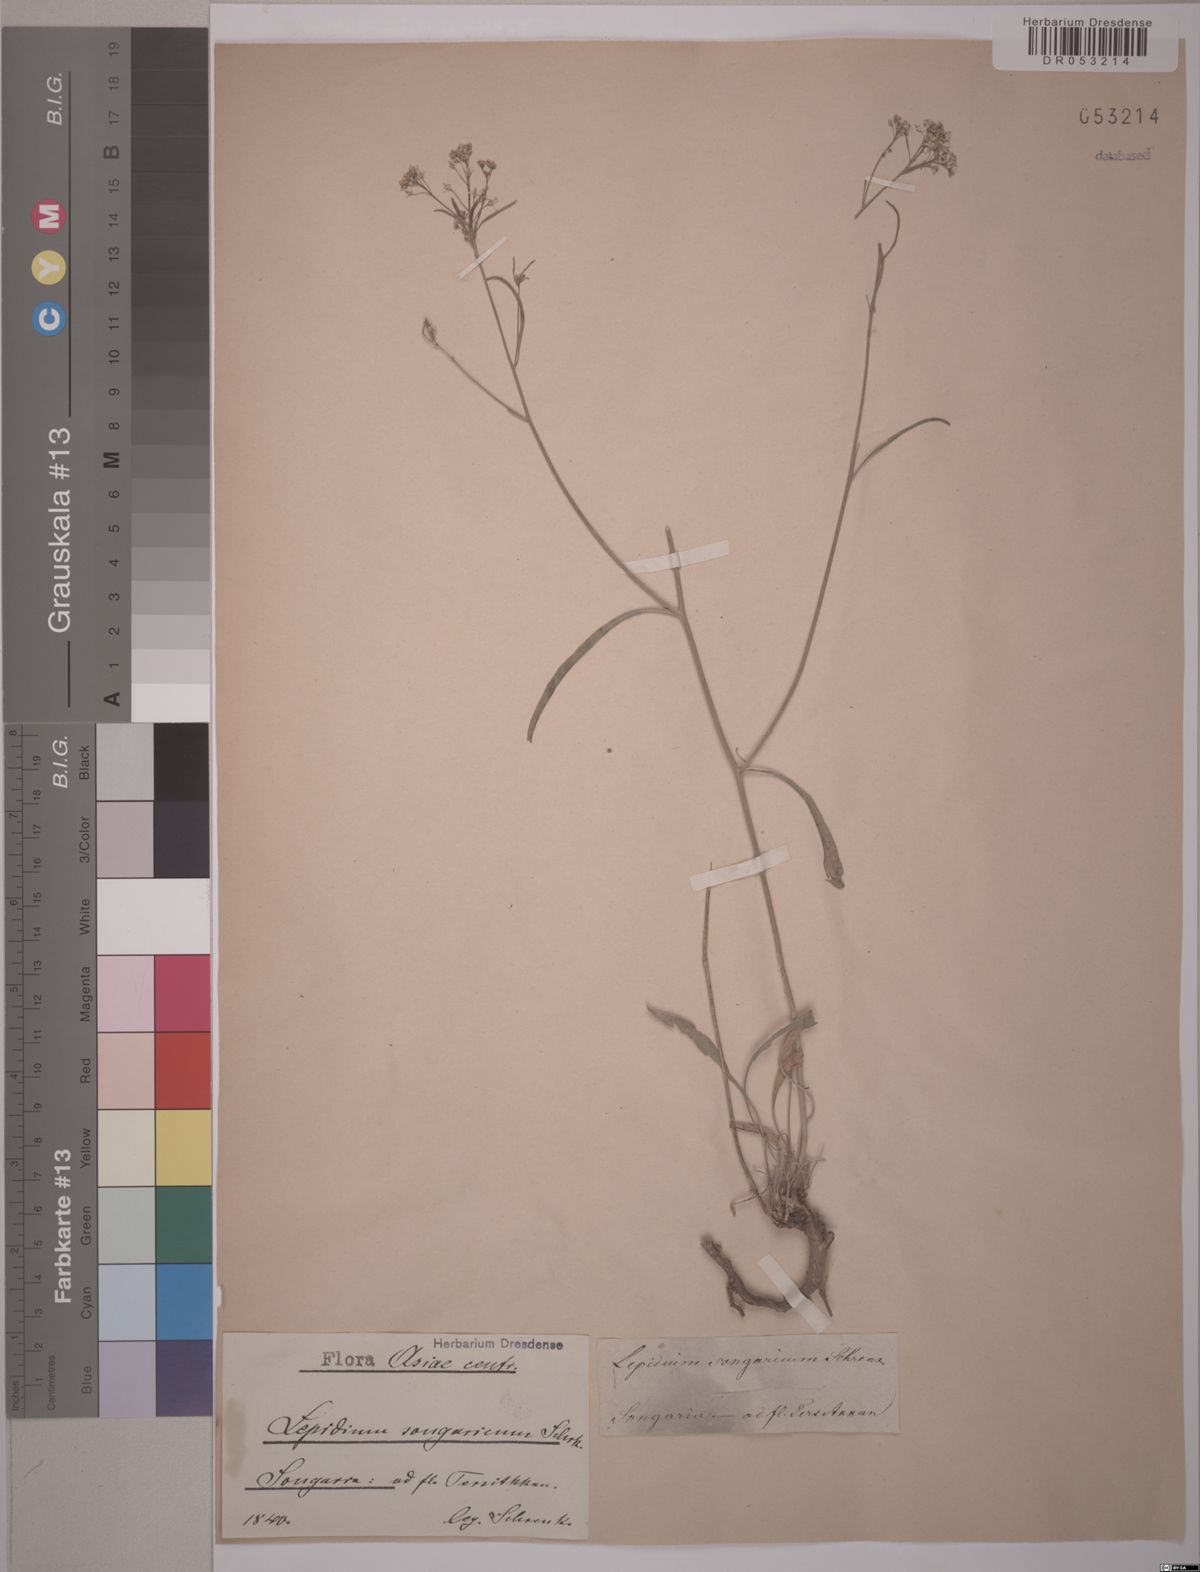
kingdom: Plantae
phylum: Tracheophyta
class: Magnoliopsida
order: Brassicales
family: Brassicaceae
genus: Lepidium
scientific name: Lepidium songaricum
